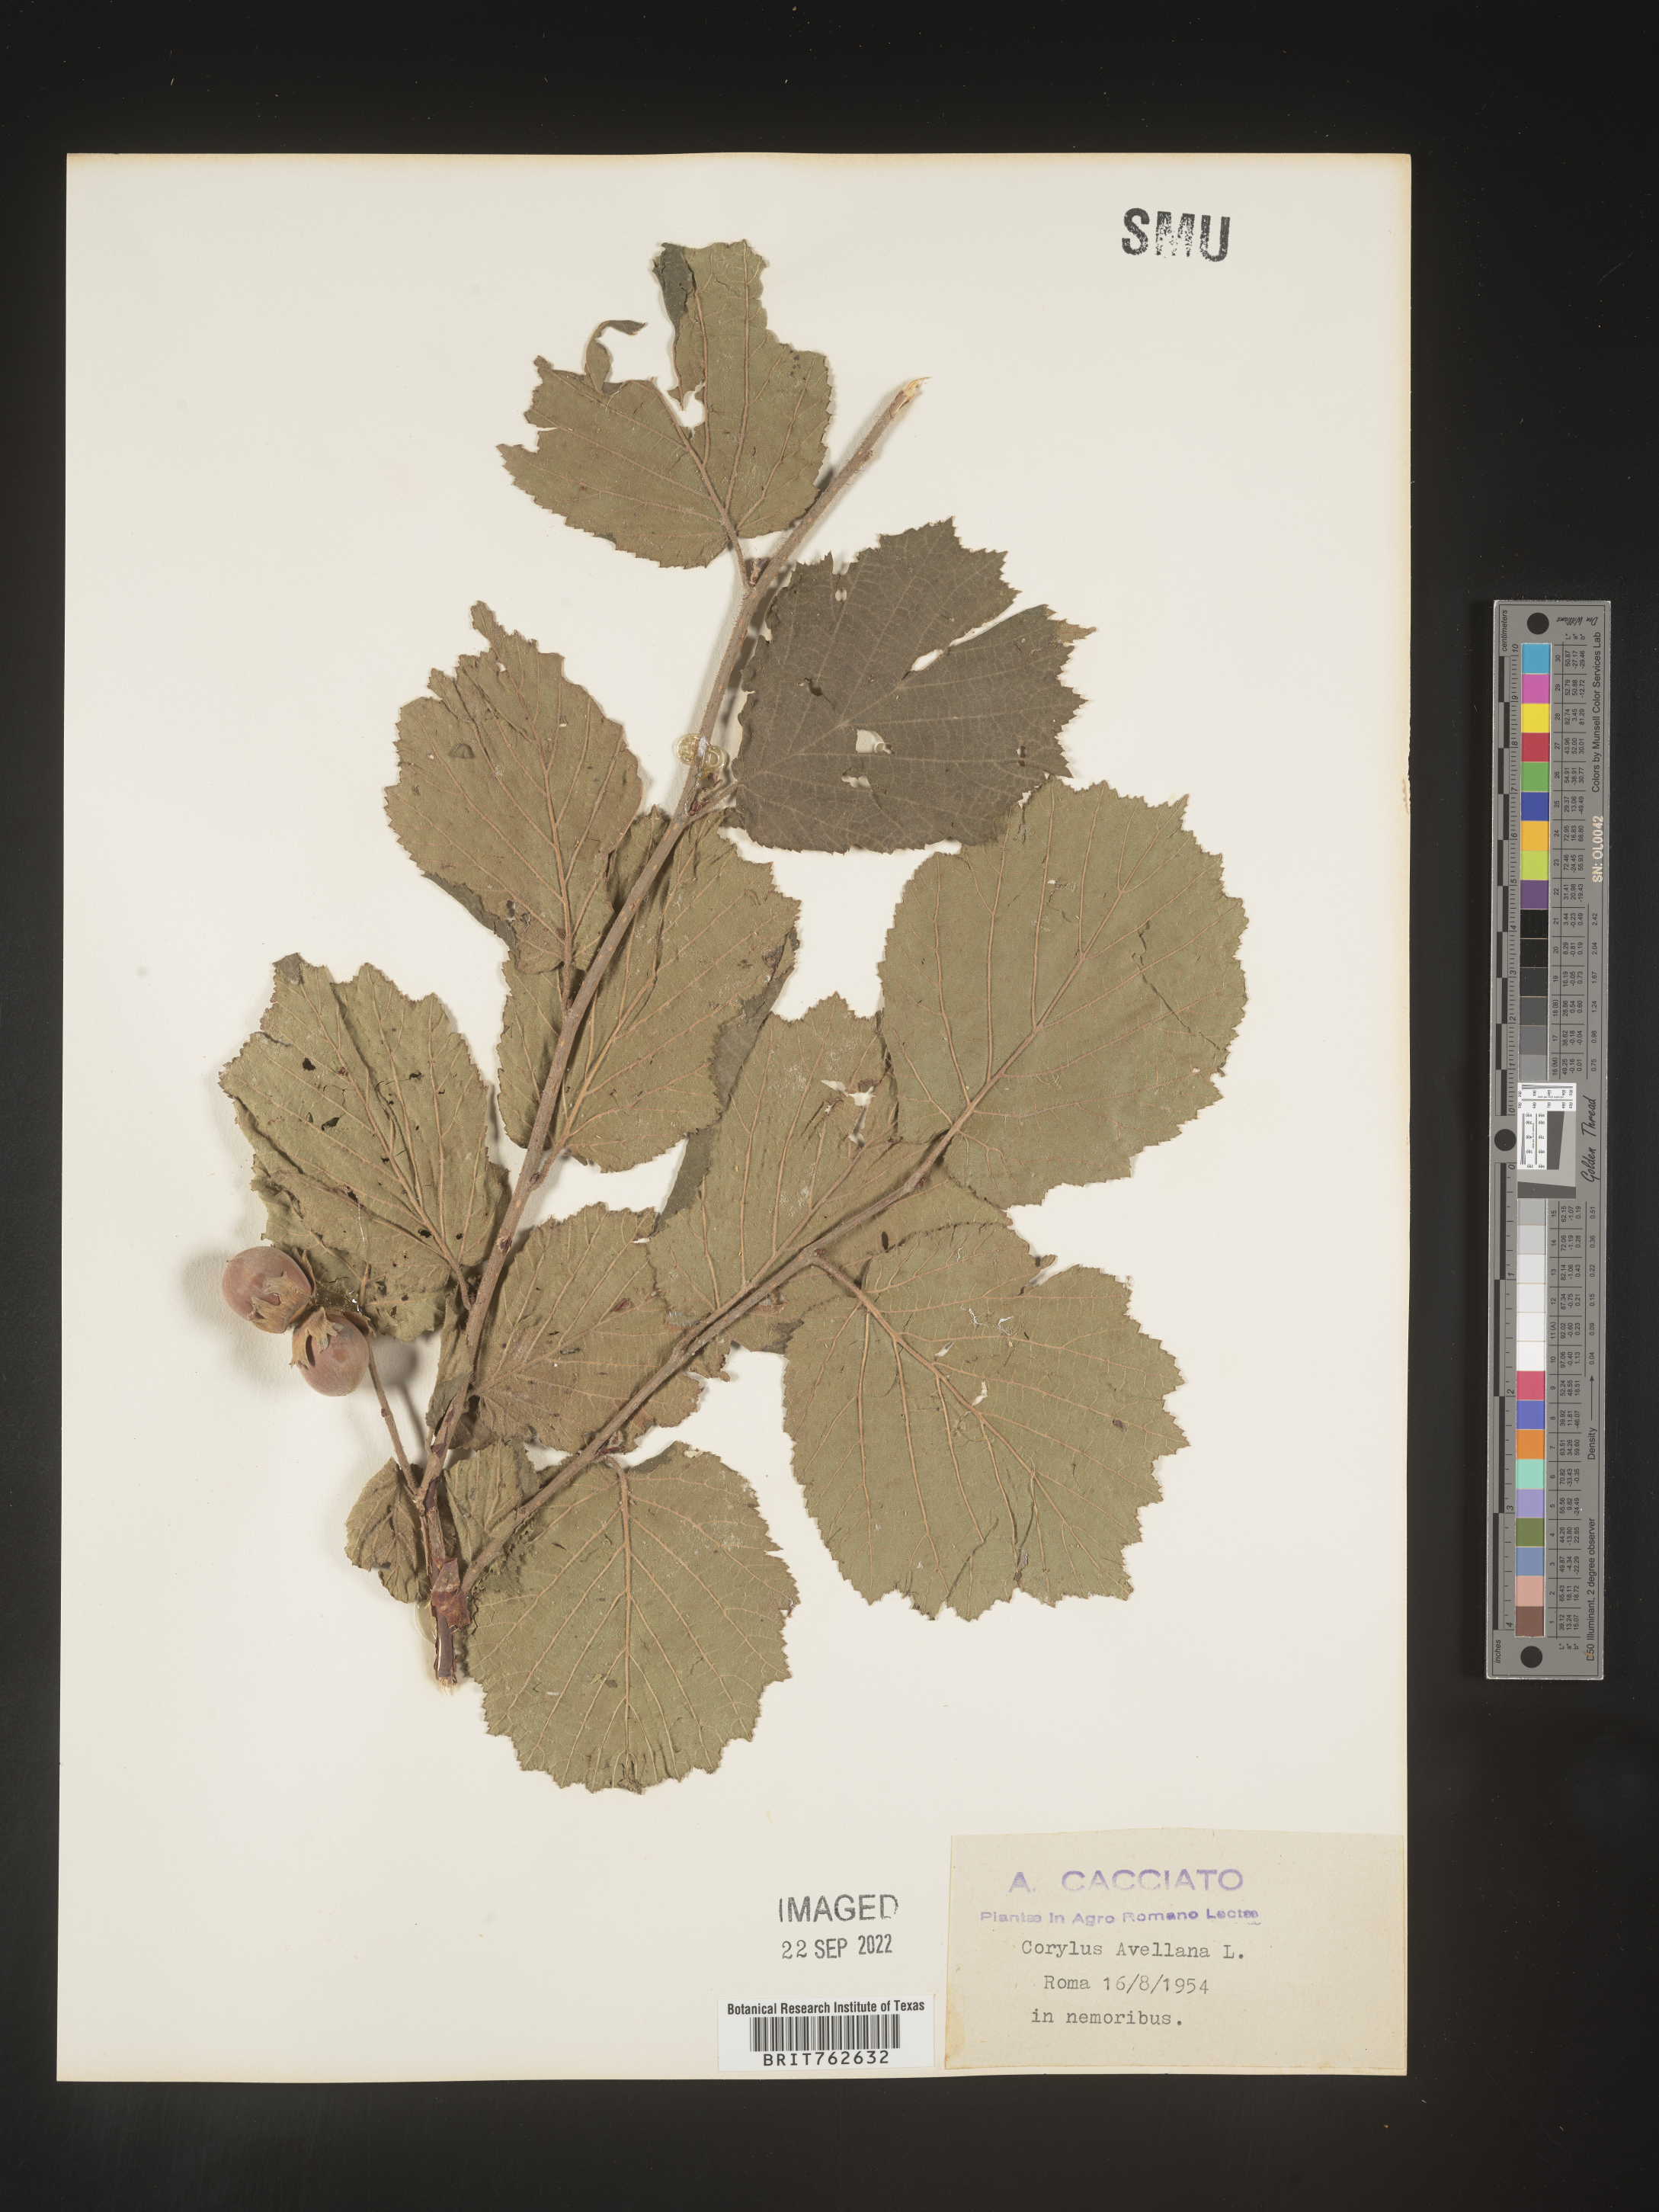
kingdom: Plantae
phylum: Tracheophyta
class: Magnoliopsida
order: Fagales
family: Betulaceae
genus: Corylus
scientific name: Corylus
